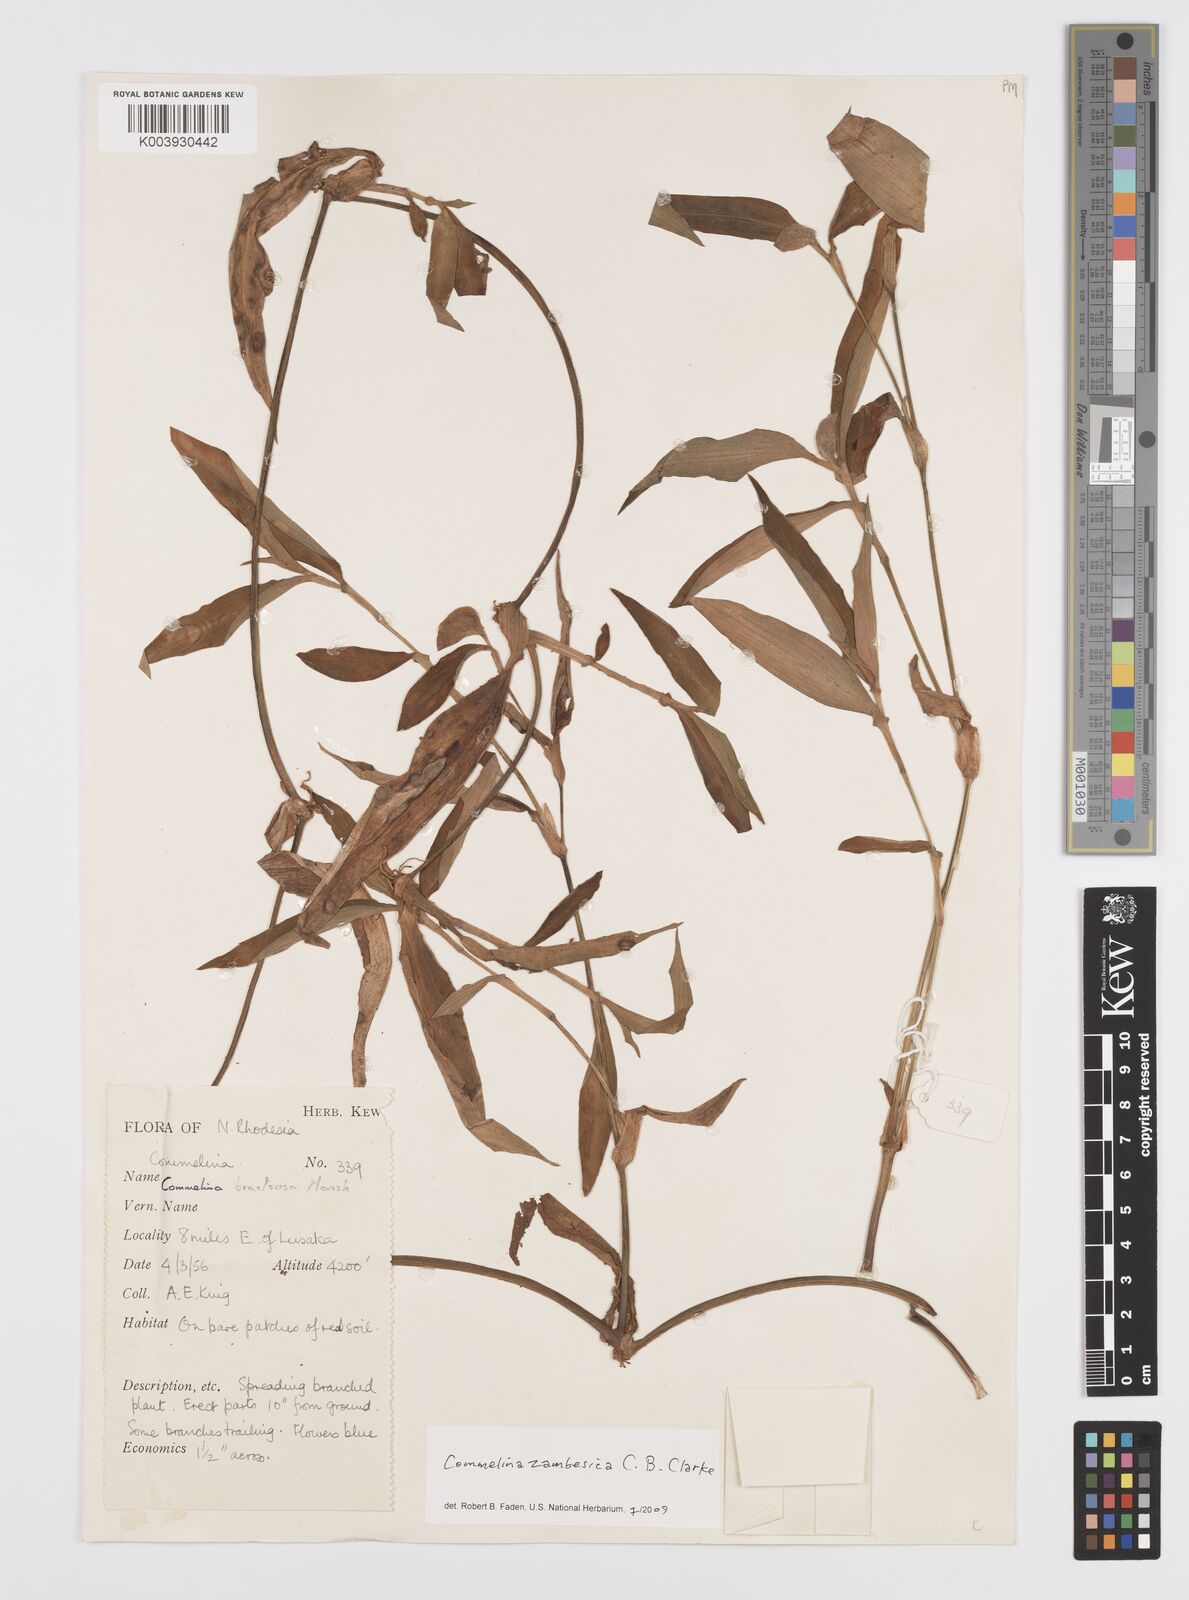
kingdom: Plantae
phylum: Tracheophyta
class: Liliopsida
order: Commelinales
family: Commelinaceae
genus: Commelina
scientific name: Commelina zambesica
